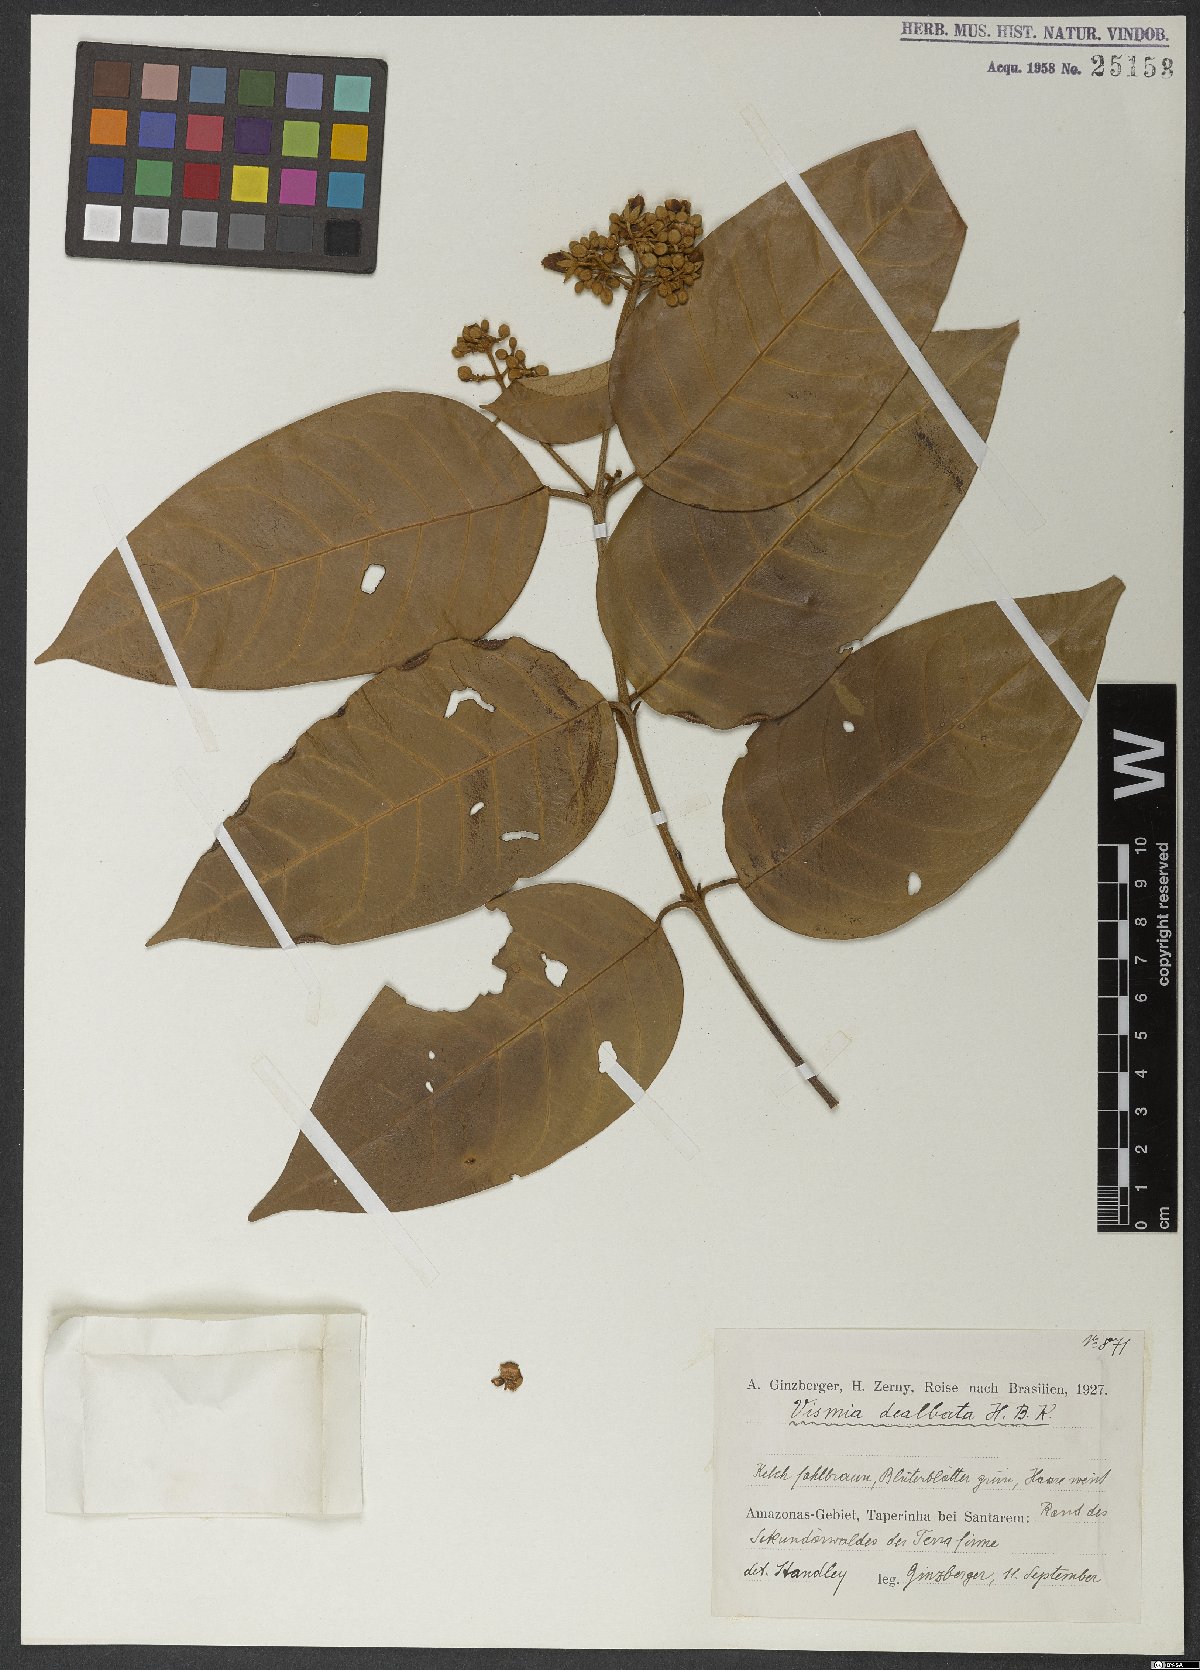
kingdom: Plantae
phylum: Tracheophyta
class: Magnoliopsida
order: Malpighiales
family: Hypericaceae
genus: Vismia
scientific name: Vismia baccifera
